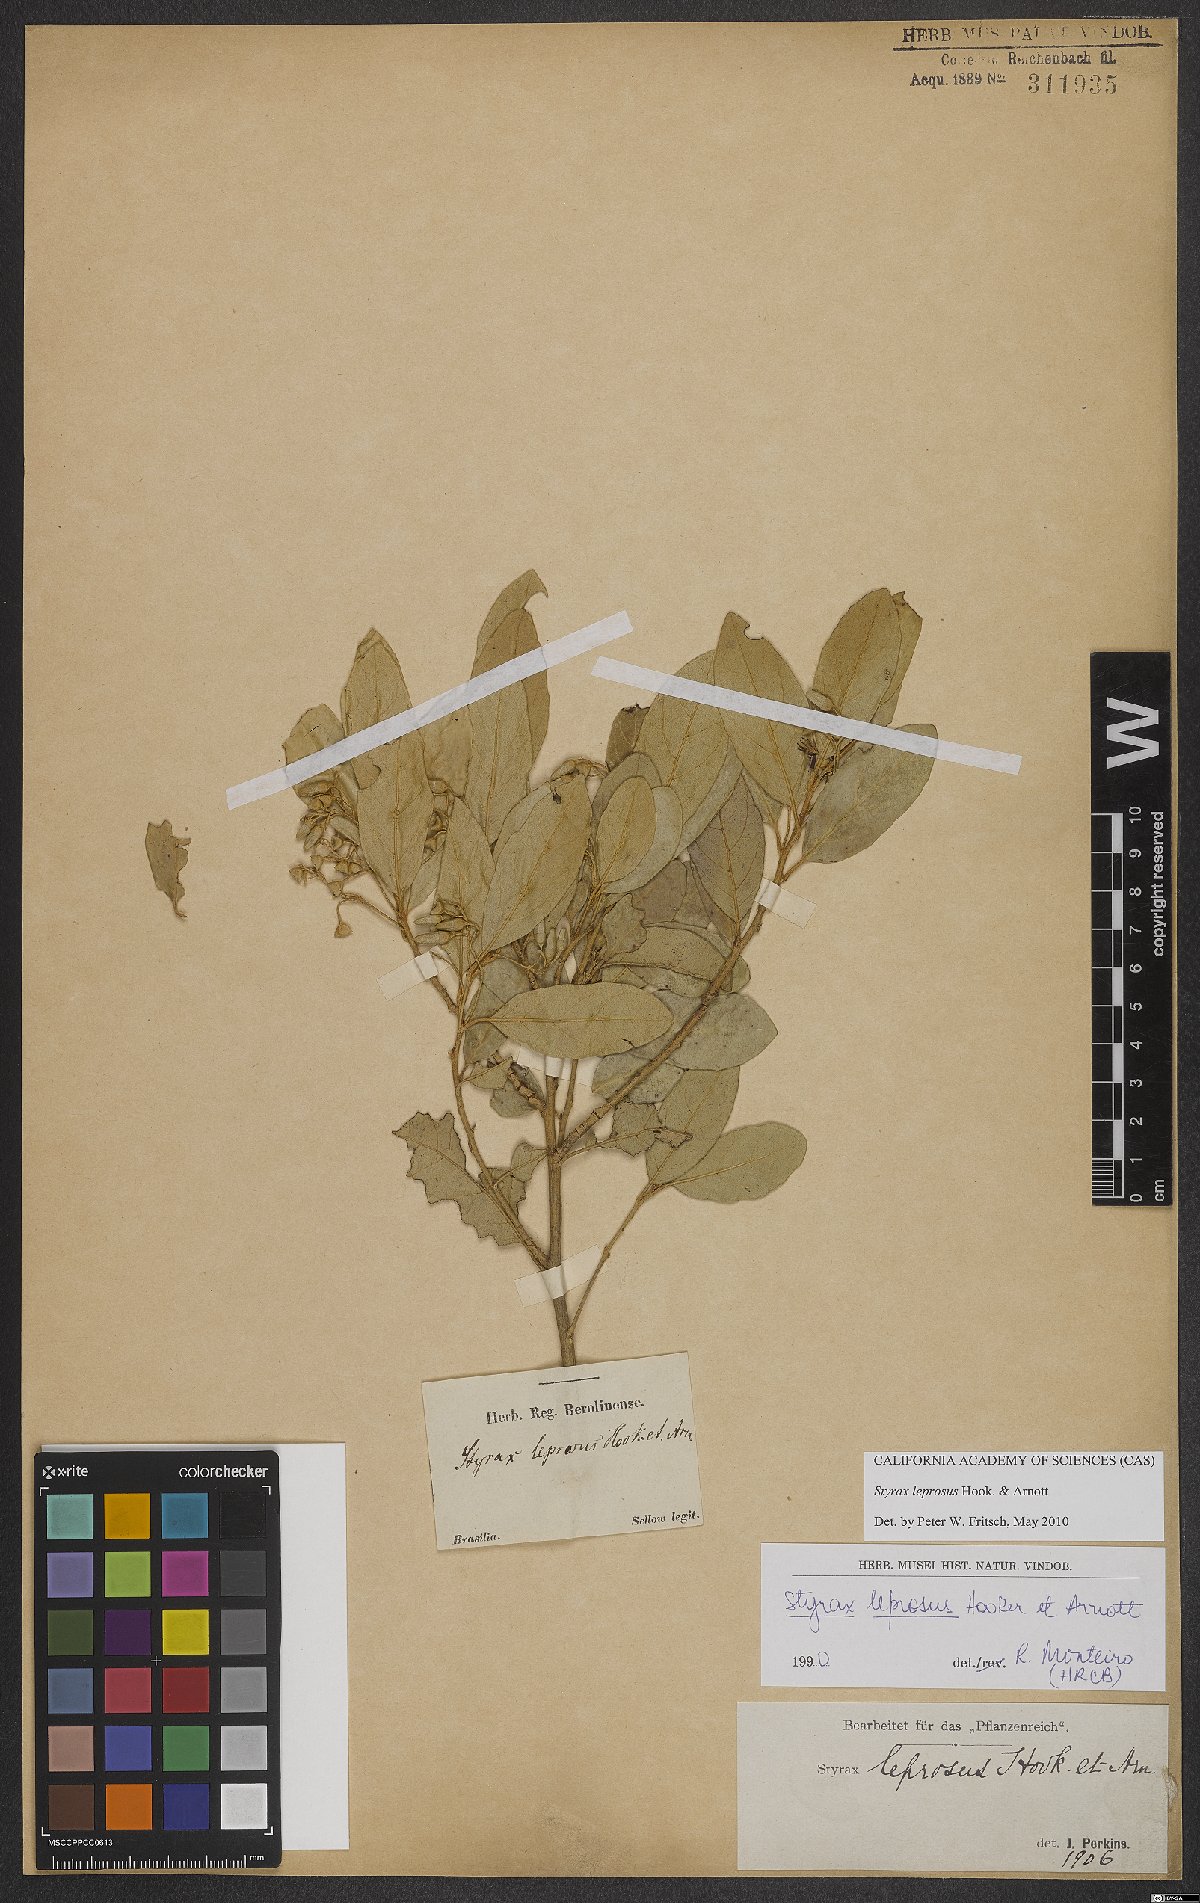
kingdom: Plantae
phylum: Tracheophyta
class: Magnoliopsida
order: Ericales
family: Styracaceae
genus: Styrax
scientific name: Styrax leprosus
